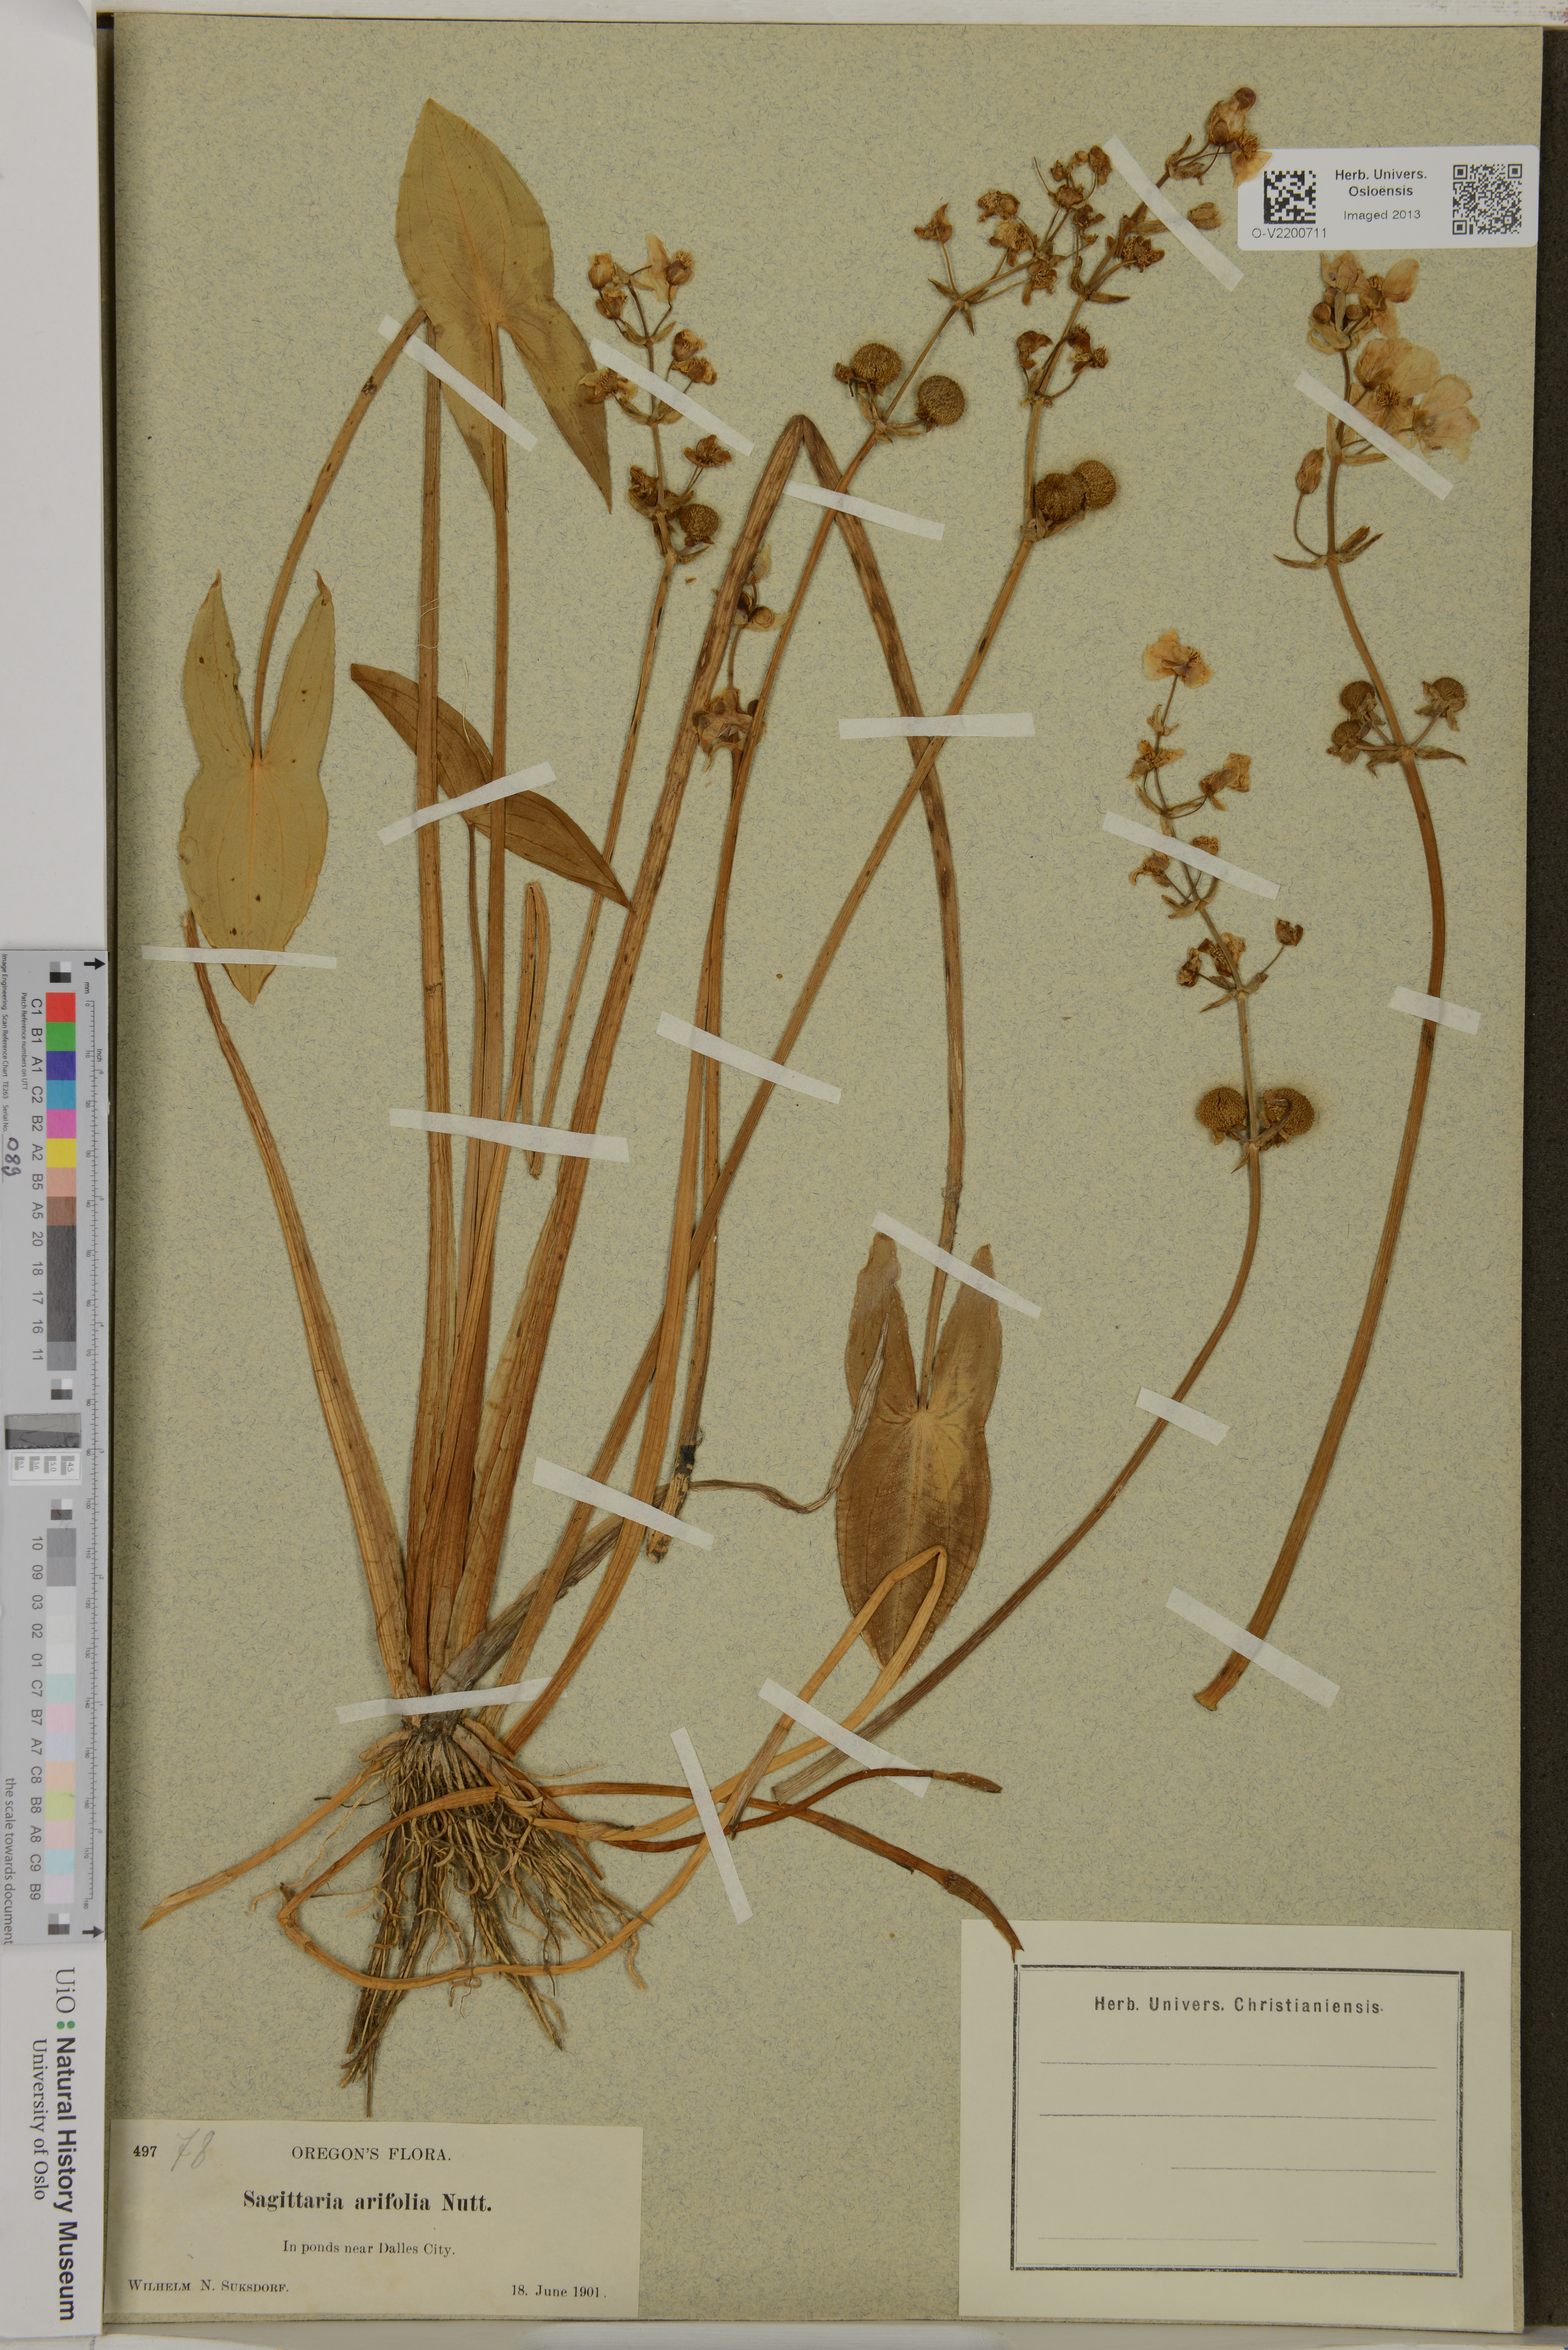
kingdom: Plantae
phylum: Tracheophyta
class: Liliopsida
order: Alismatales
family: Alismataceae
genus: Sagittaria
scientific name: Sagittaria cuneata
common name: Northern arrowhead
